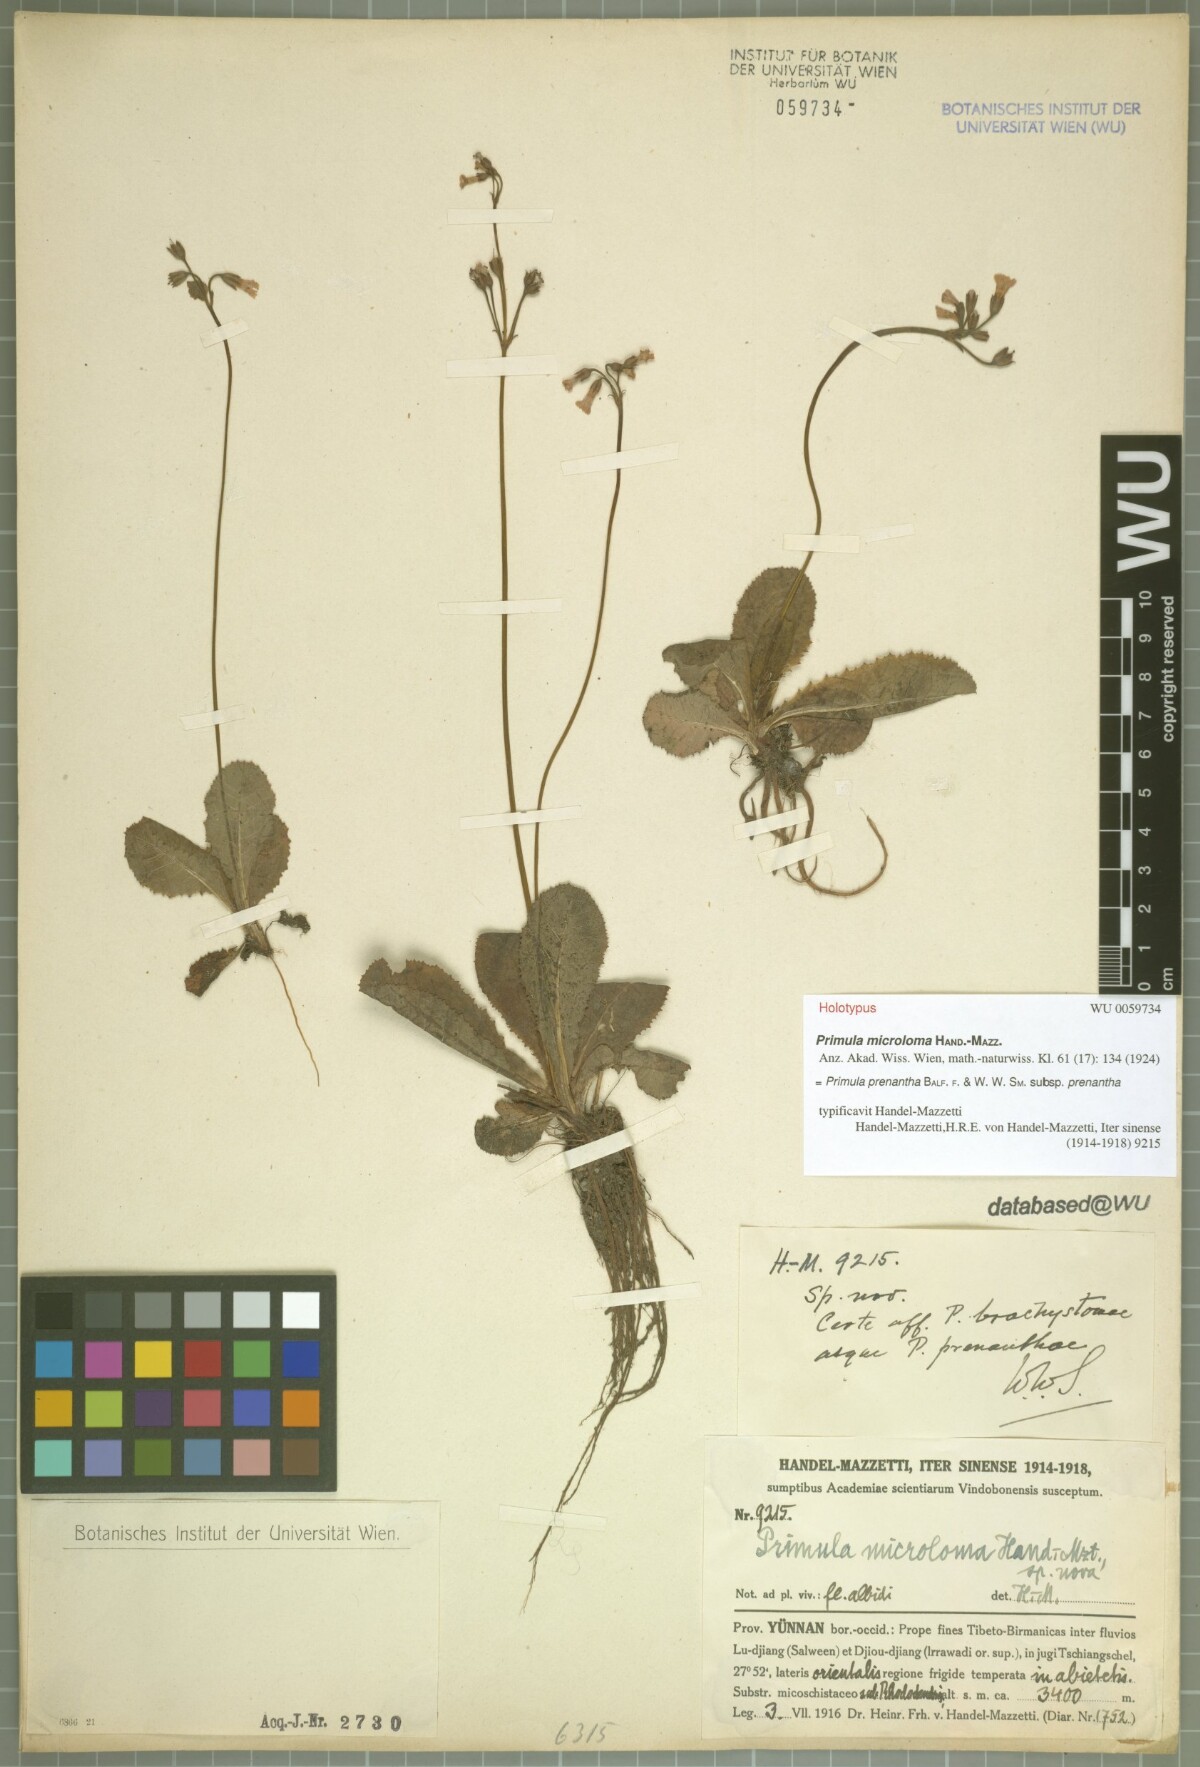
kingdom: Plantae
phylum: Tracheophyta
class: Magnoliopsida
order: Ericales
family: Primulaceae
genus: Primula
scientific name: Primula prenantha
